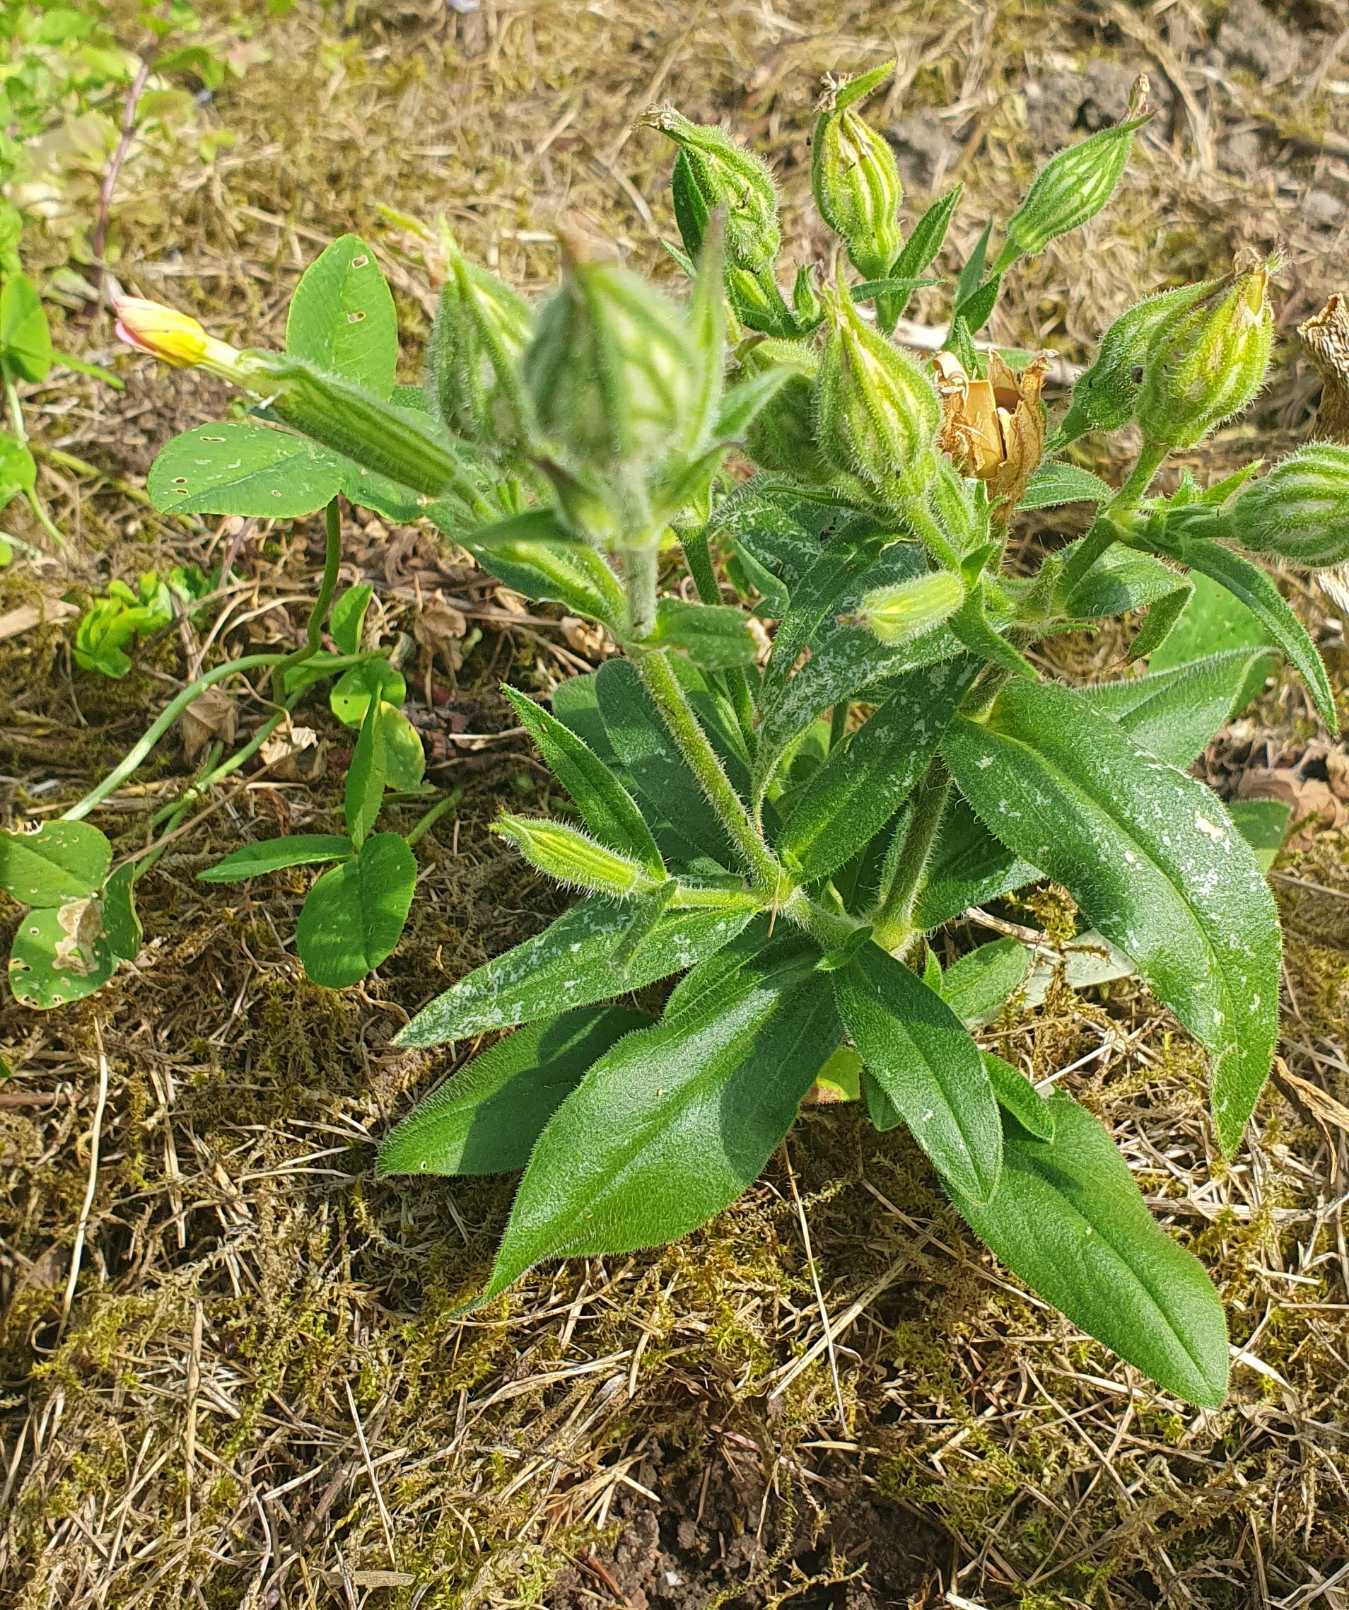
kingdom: Plantae
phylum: Tracheophyta
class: Magnoliopsida
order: Caryophyllales
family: Caryophyllaceae
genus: Silene
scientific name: Silene noctiflora
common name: Nat-limurt
